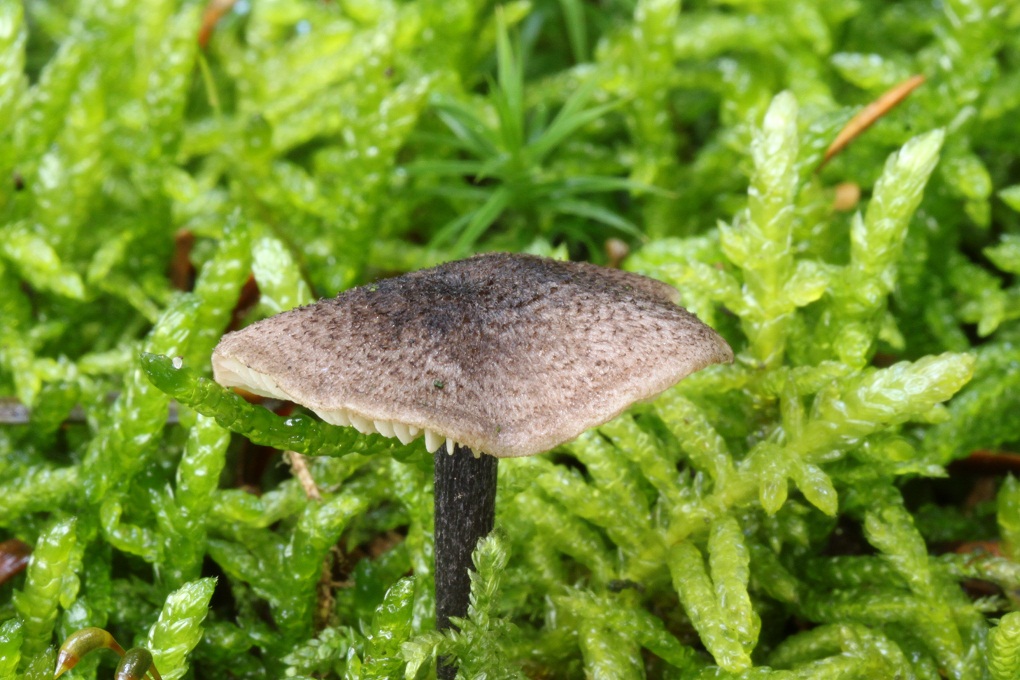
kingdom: Fungi
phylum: Basidiomycota
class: Agaricomycetes
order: Agaricales
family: Entolomataceae
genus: Entoloma
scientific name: Entoloma tjallingiorum
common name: prægtig rødblad
